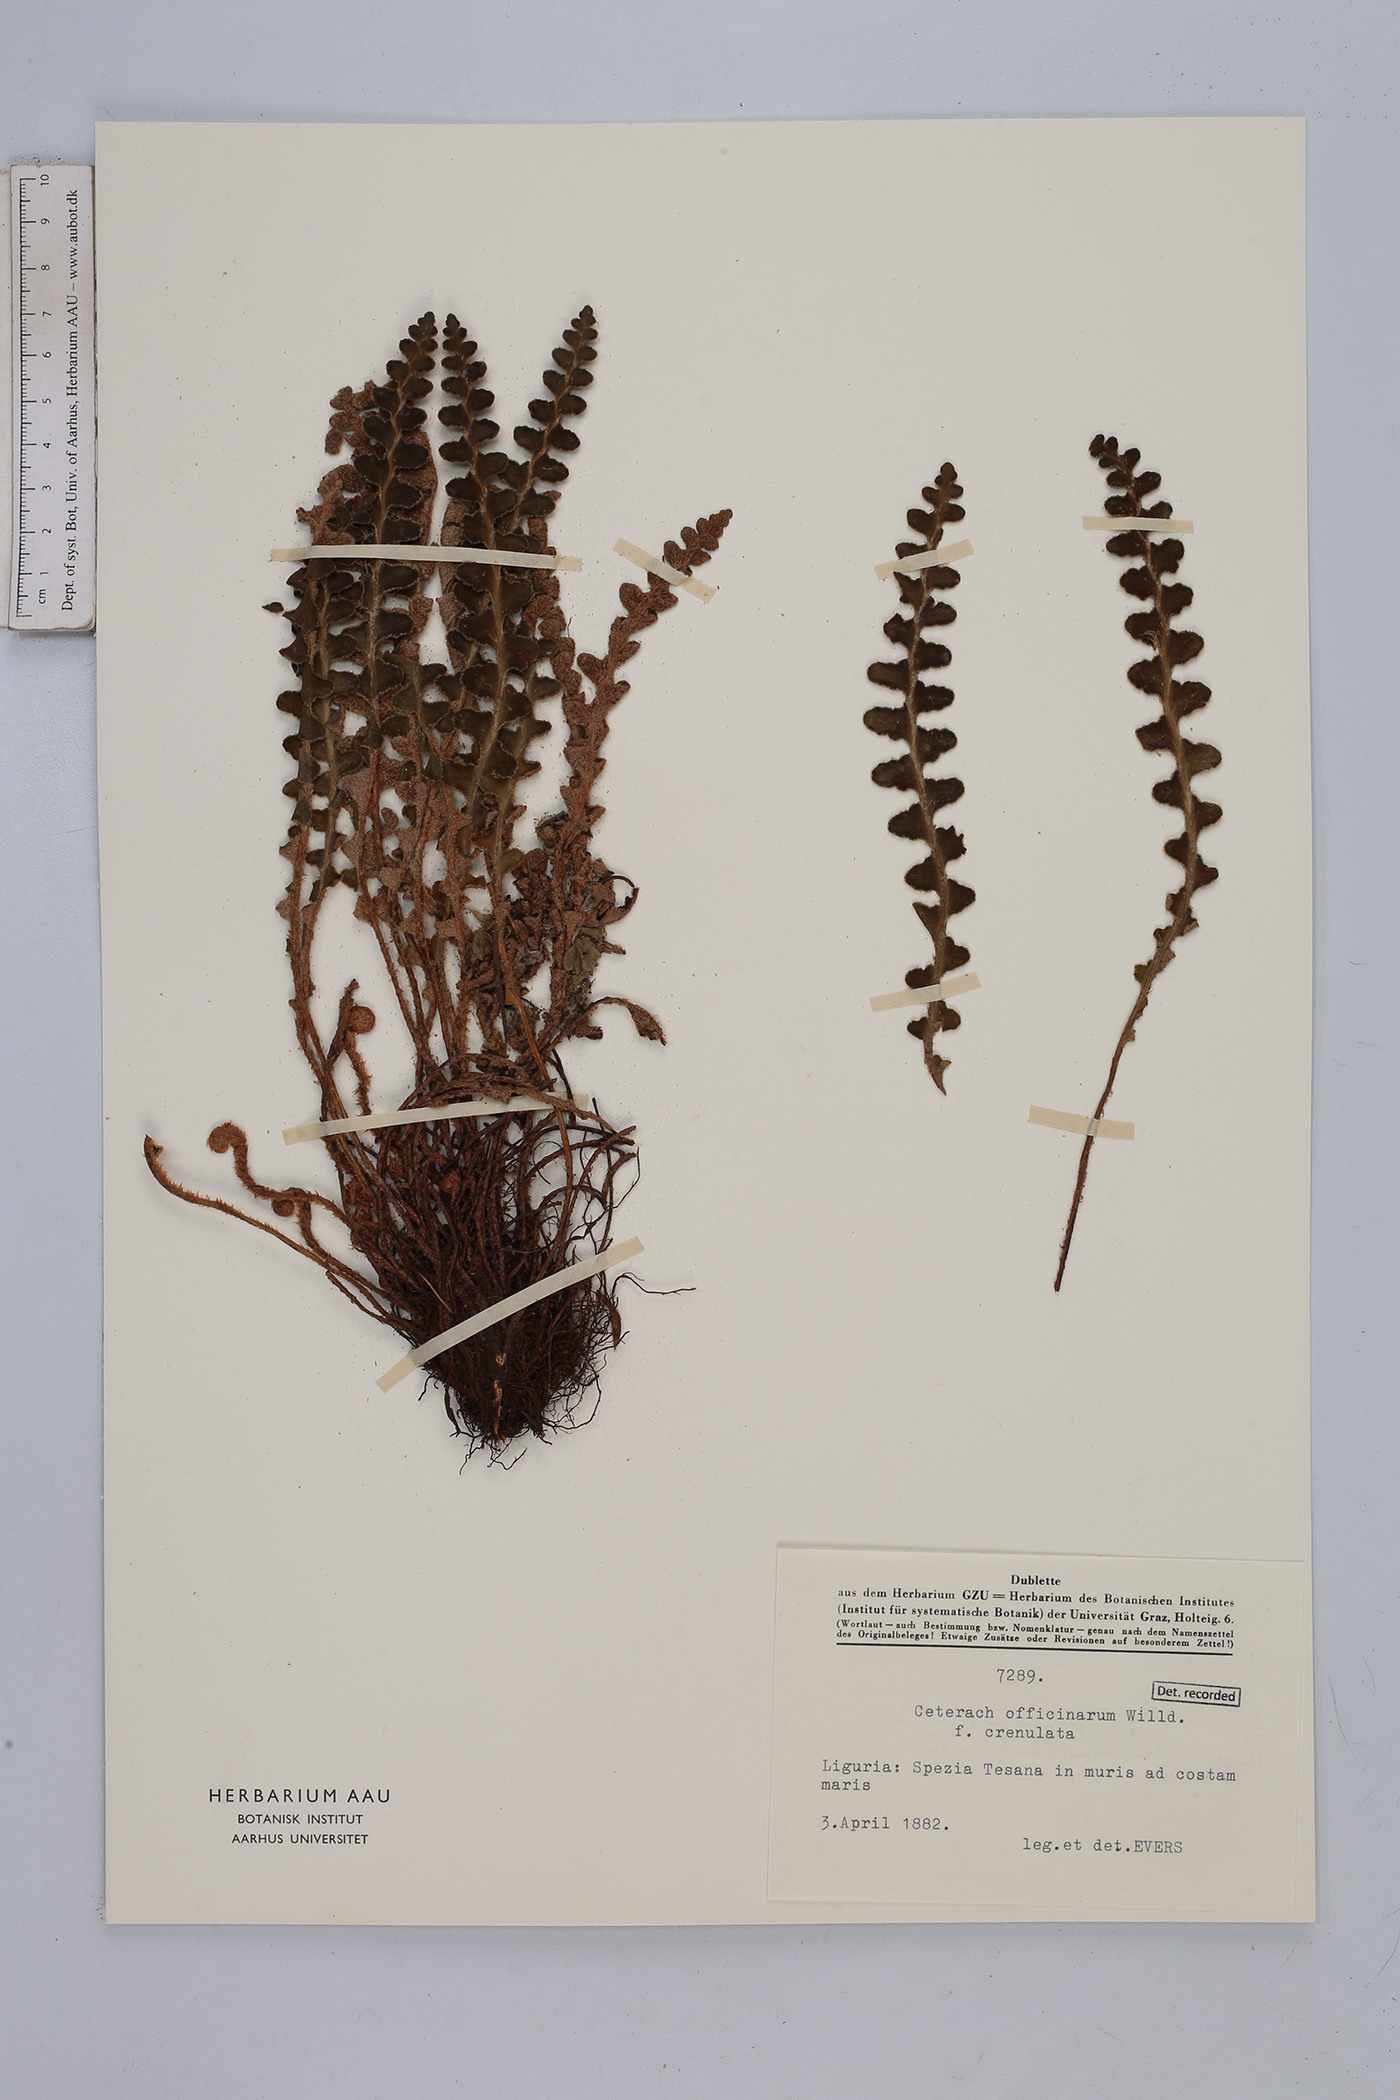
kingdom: Plantae
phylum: Tracheophyta
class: Polypodiopsida
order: Polypodiales
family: Aspleniaceae
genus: Asplenium
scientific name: Asplenium ceterach
